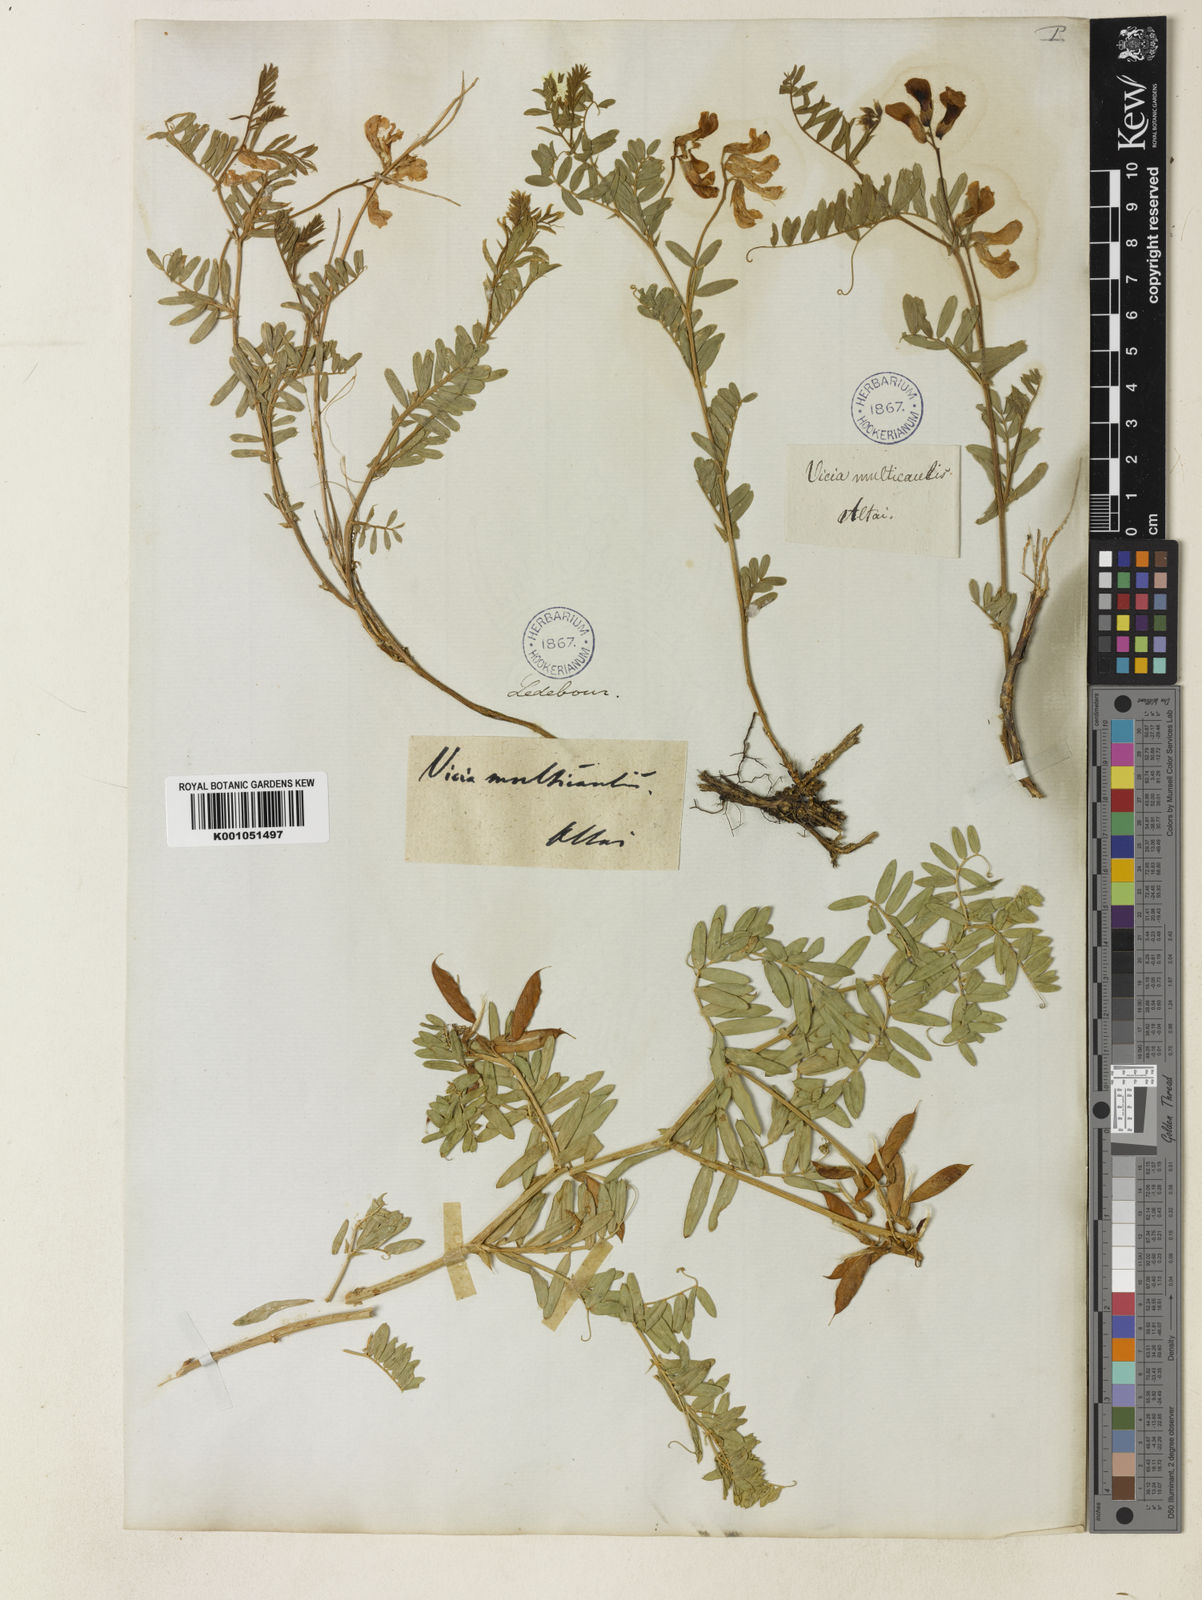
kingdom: Plantae
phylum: Tracheophyta
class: Magnoliopsida
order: Fabales
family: Fabaceae
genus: Vicia
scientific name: Vicia multicaulis
